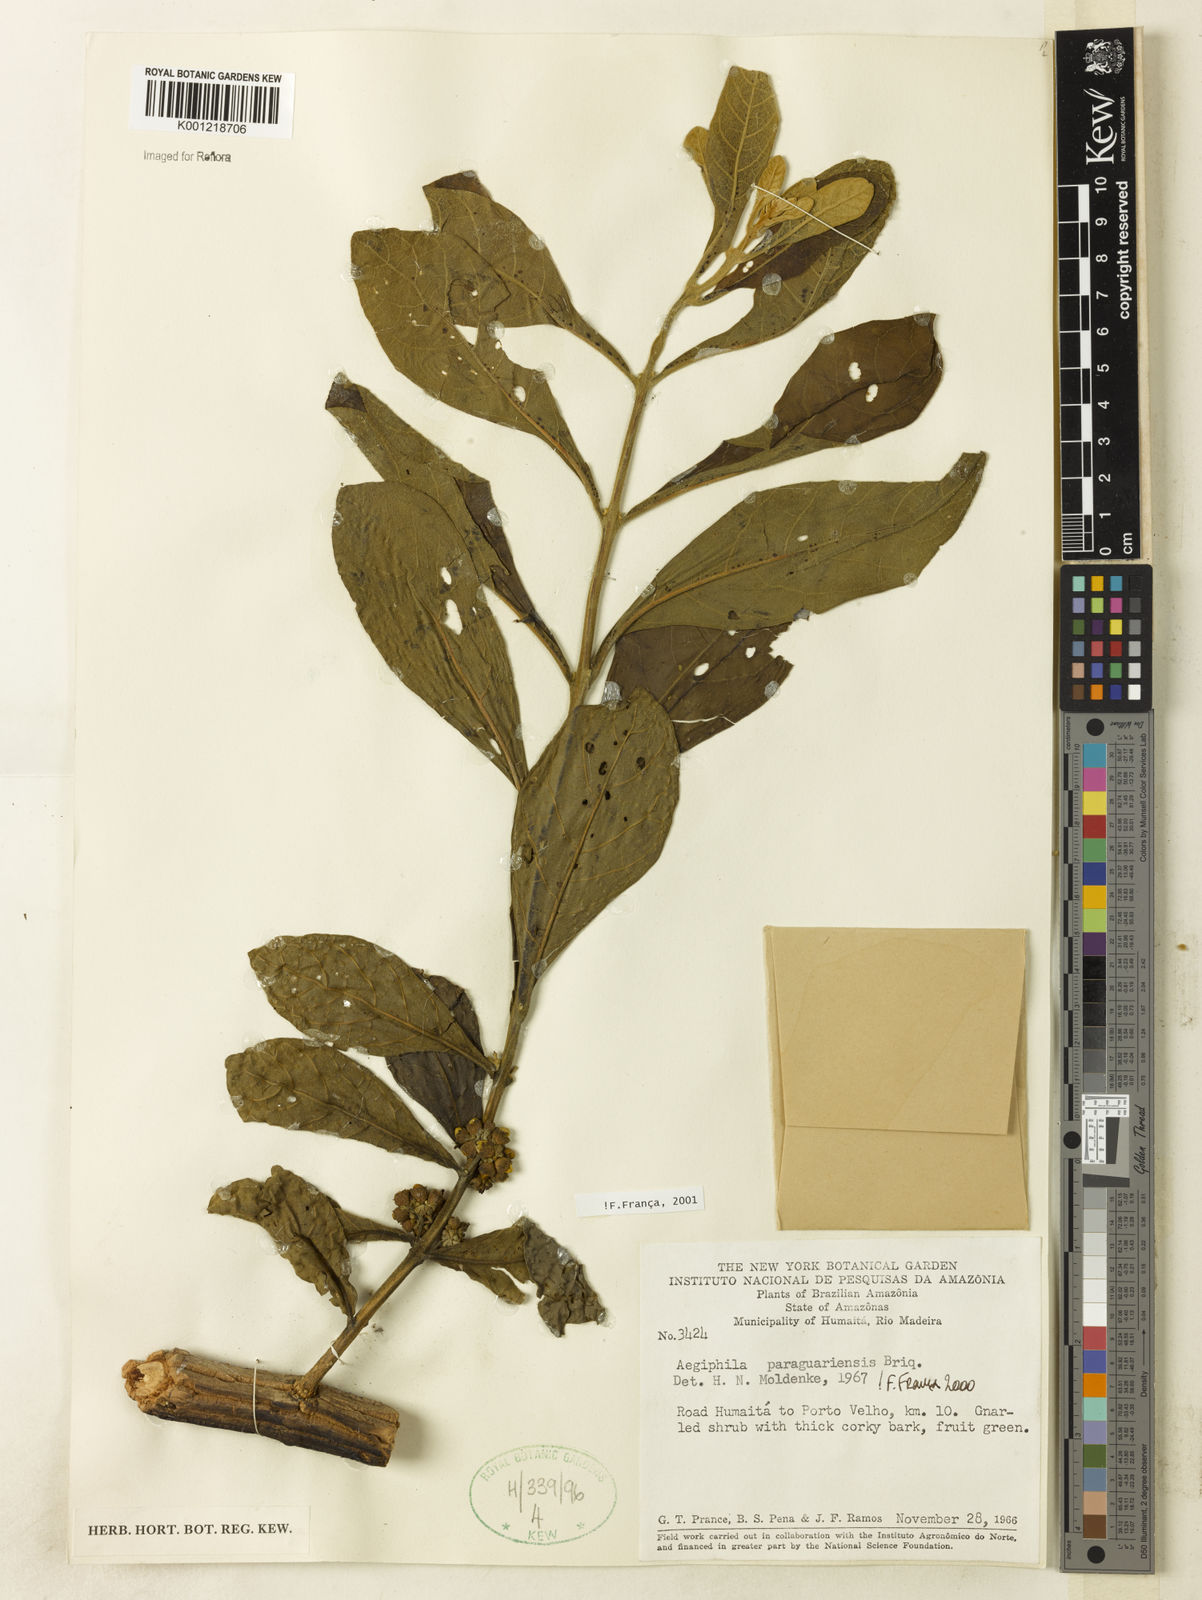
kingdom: Plantae
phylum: Tracheophyta
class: Magnoliopsida
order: Lamiales
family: Lamiaceae
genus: Aegiphila
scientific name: Aegiphila paraguariensis
